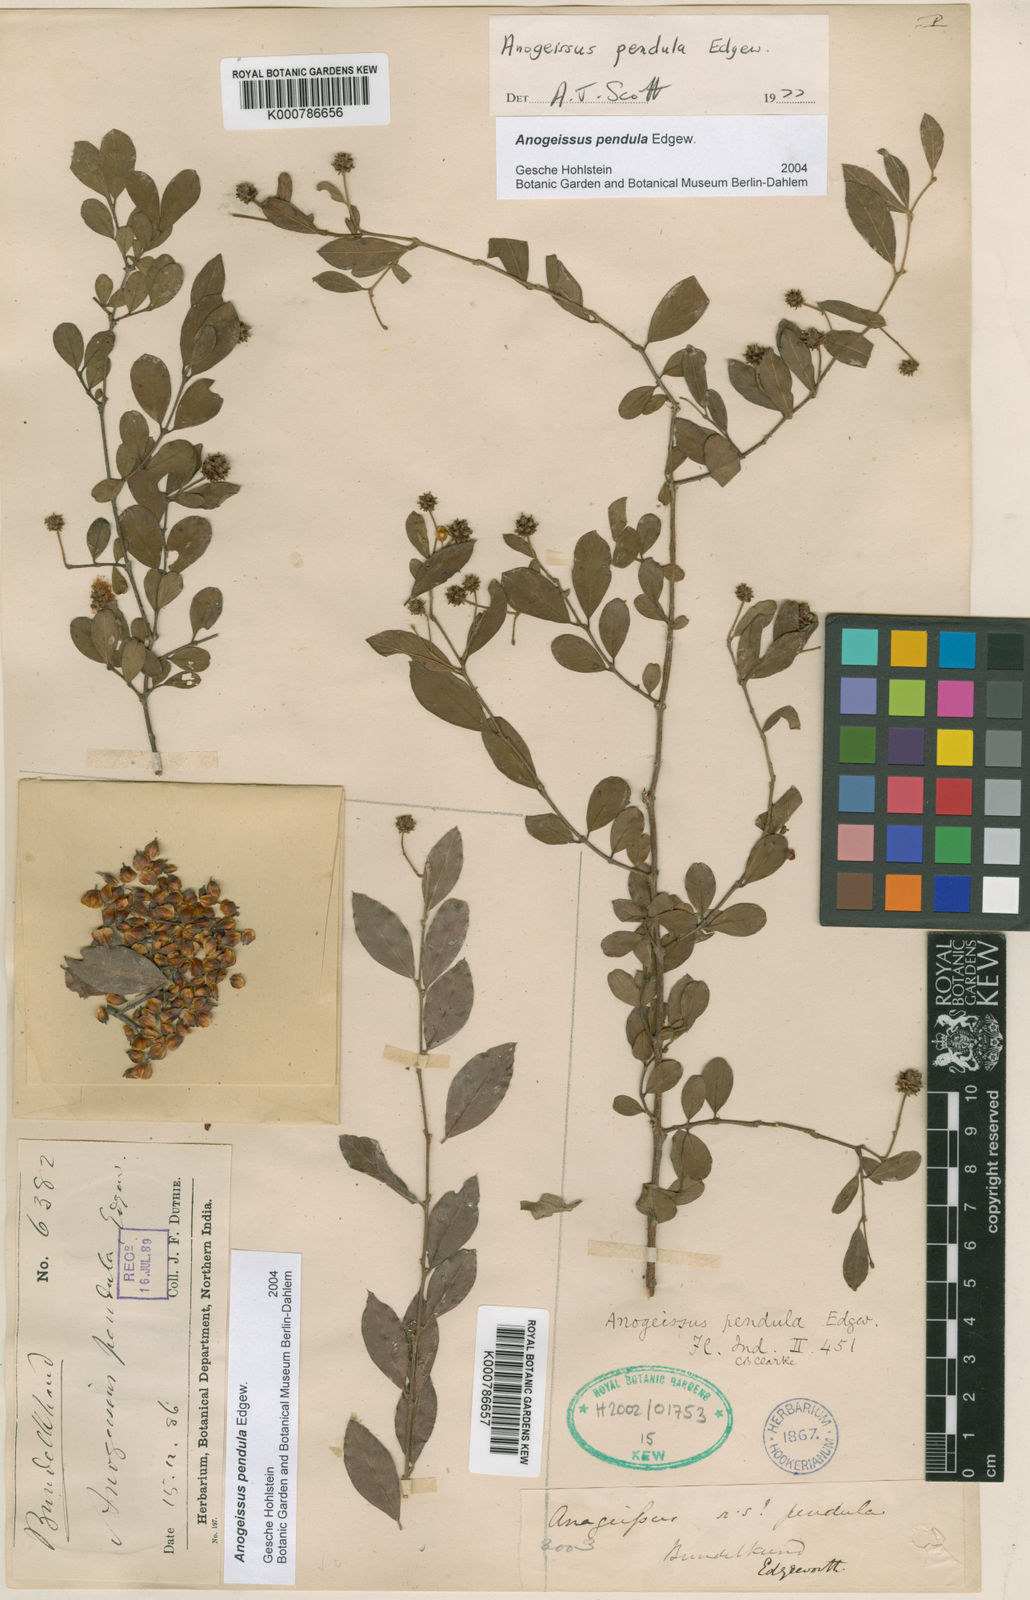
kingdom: Plantae
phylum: Tracheophyta
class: Magnoliopsida
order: Myrtales
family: Combretaceae
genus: Terminalia
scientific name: Terminalia pendula
